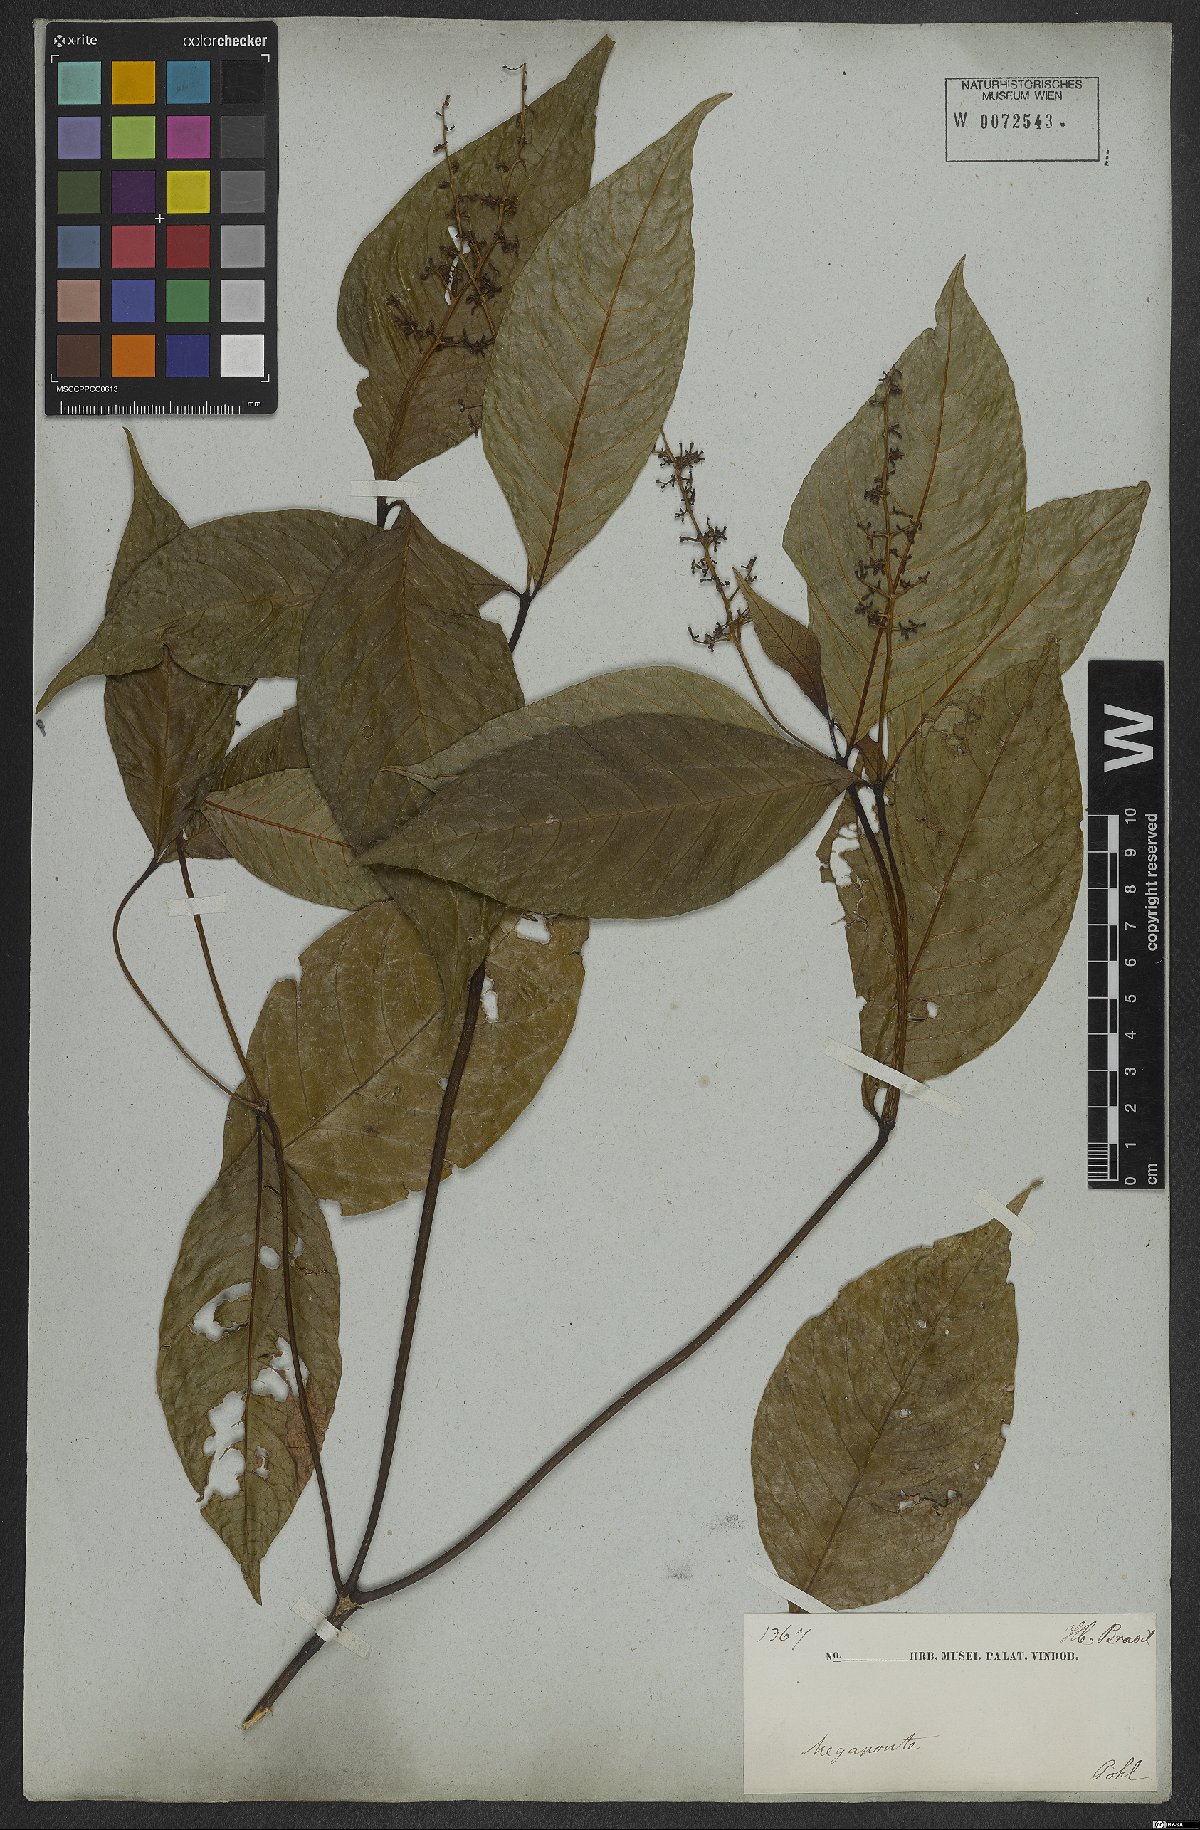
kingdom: Plantae
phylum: Tracheophyta
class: Magnoliopsida
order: Gentianales
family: Rubiaceae
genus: Palicourea
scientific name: Palicourea subundulata
